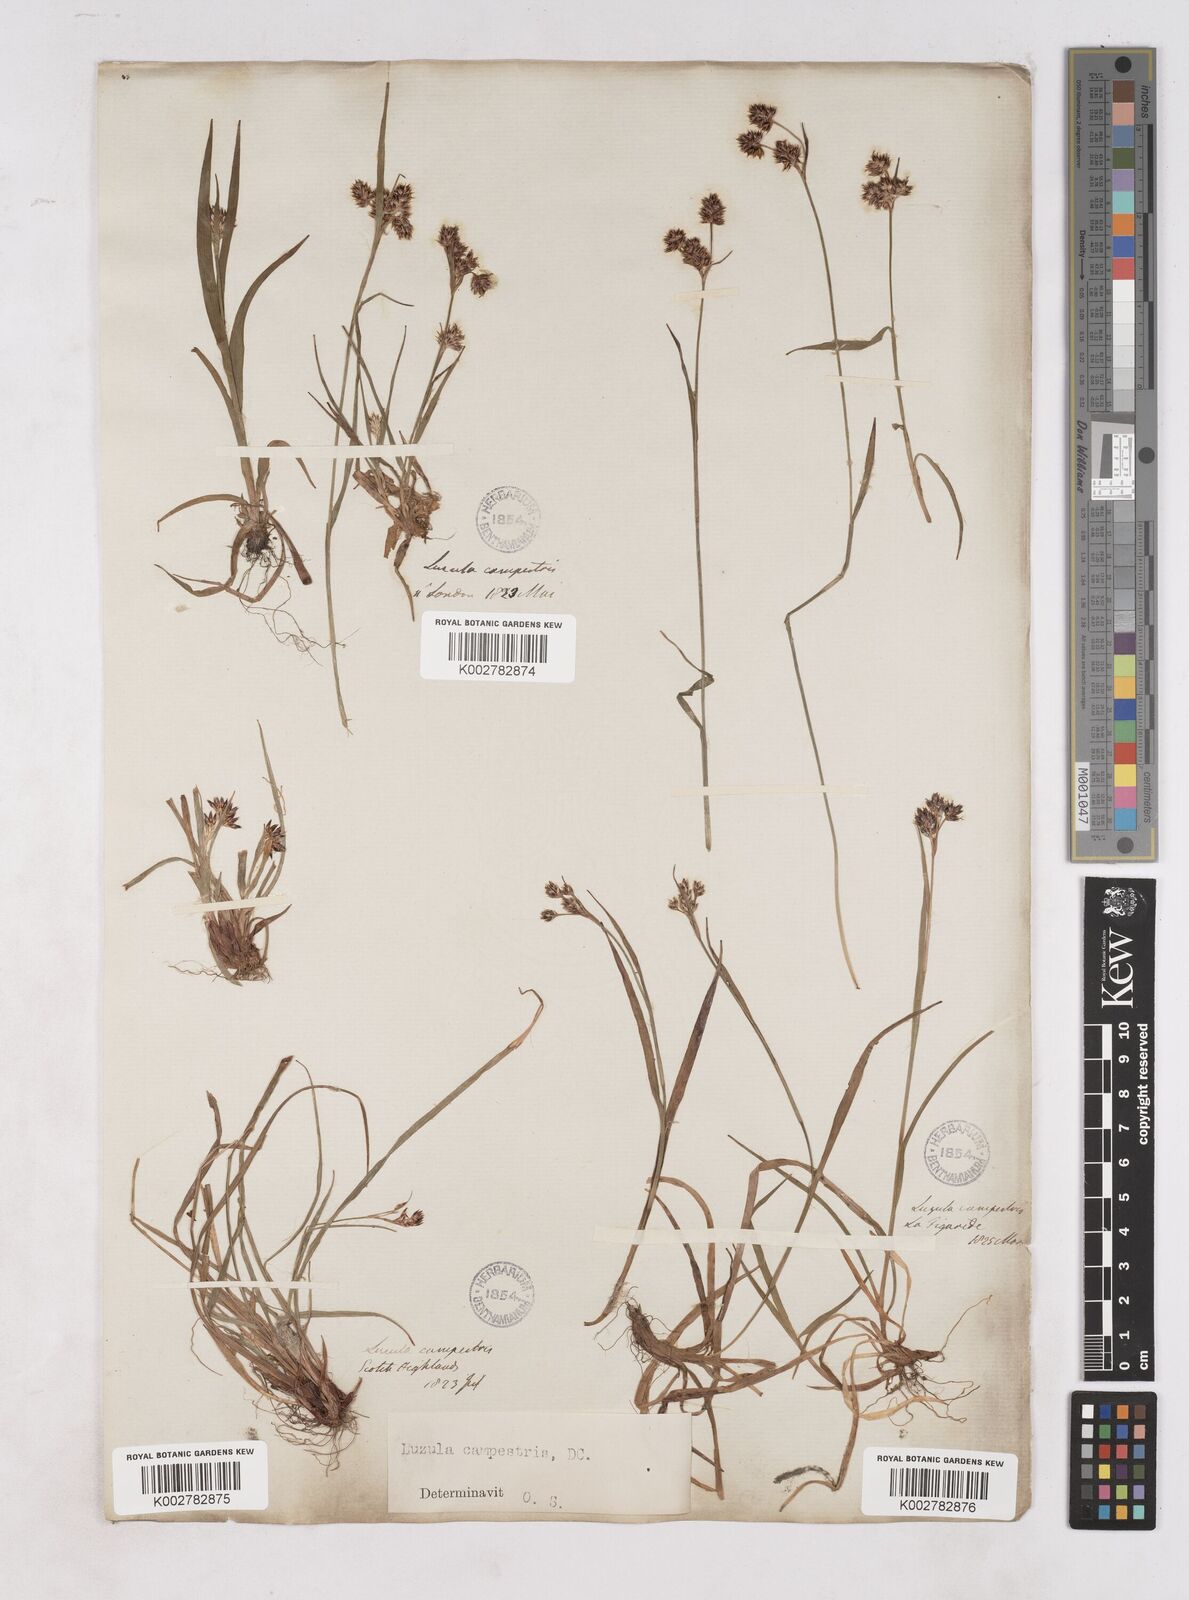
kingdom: Plantae
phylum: Tracheophyta
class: Liliopsida
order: Poales
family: Juncaceae
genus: Luzula
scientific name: Luzula campestris
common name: Field wood-rush
